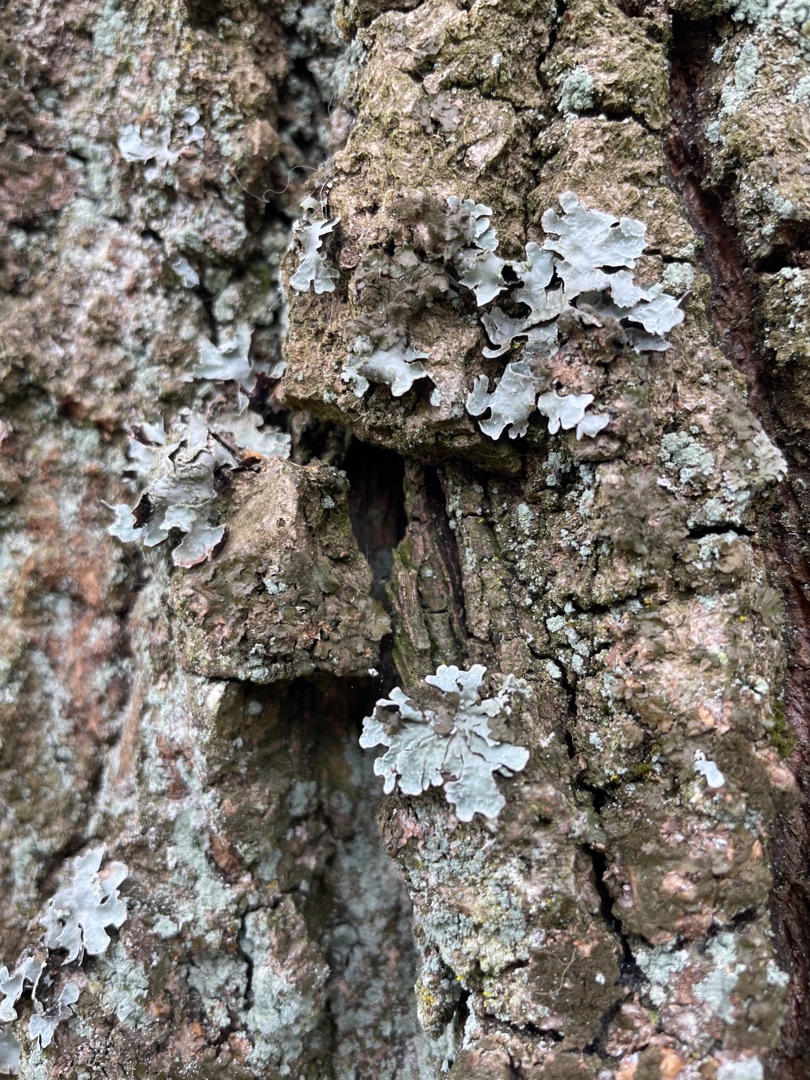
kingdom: Fungi
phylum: Ascomycota
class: Lecanoromycetes
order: Lecanorales
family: Parmeliaceae
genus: Parmelia
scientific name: Parmelia sulcata
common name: Rynket skållav
